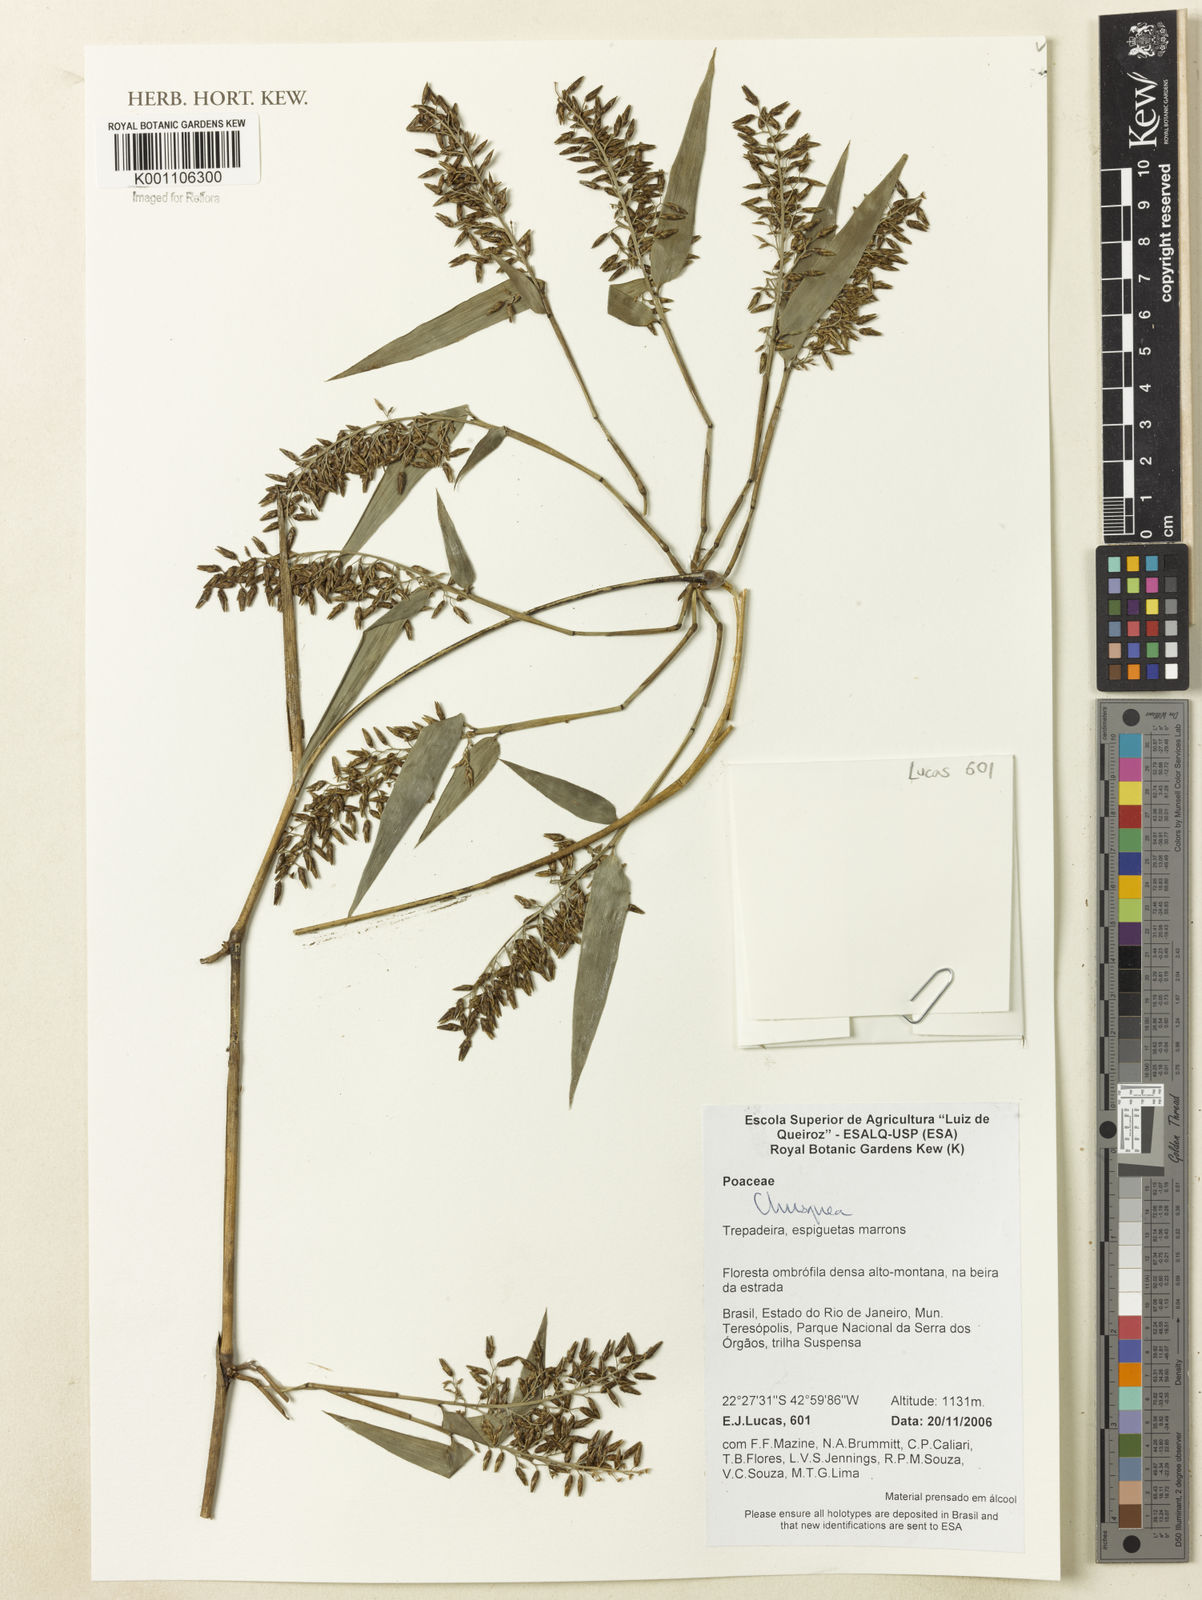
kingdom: Plantae
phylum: Tracheophyta
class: Liliopsida
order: Poales
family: Poaceae
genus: Chusquea
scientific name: Chusquea
